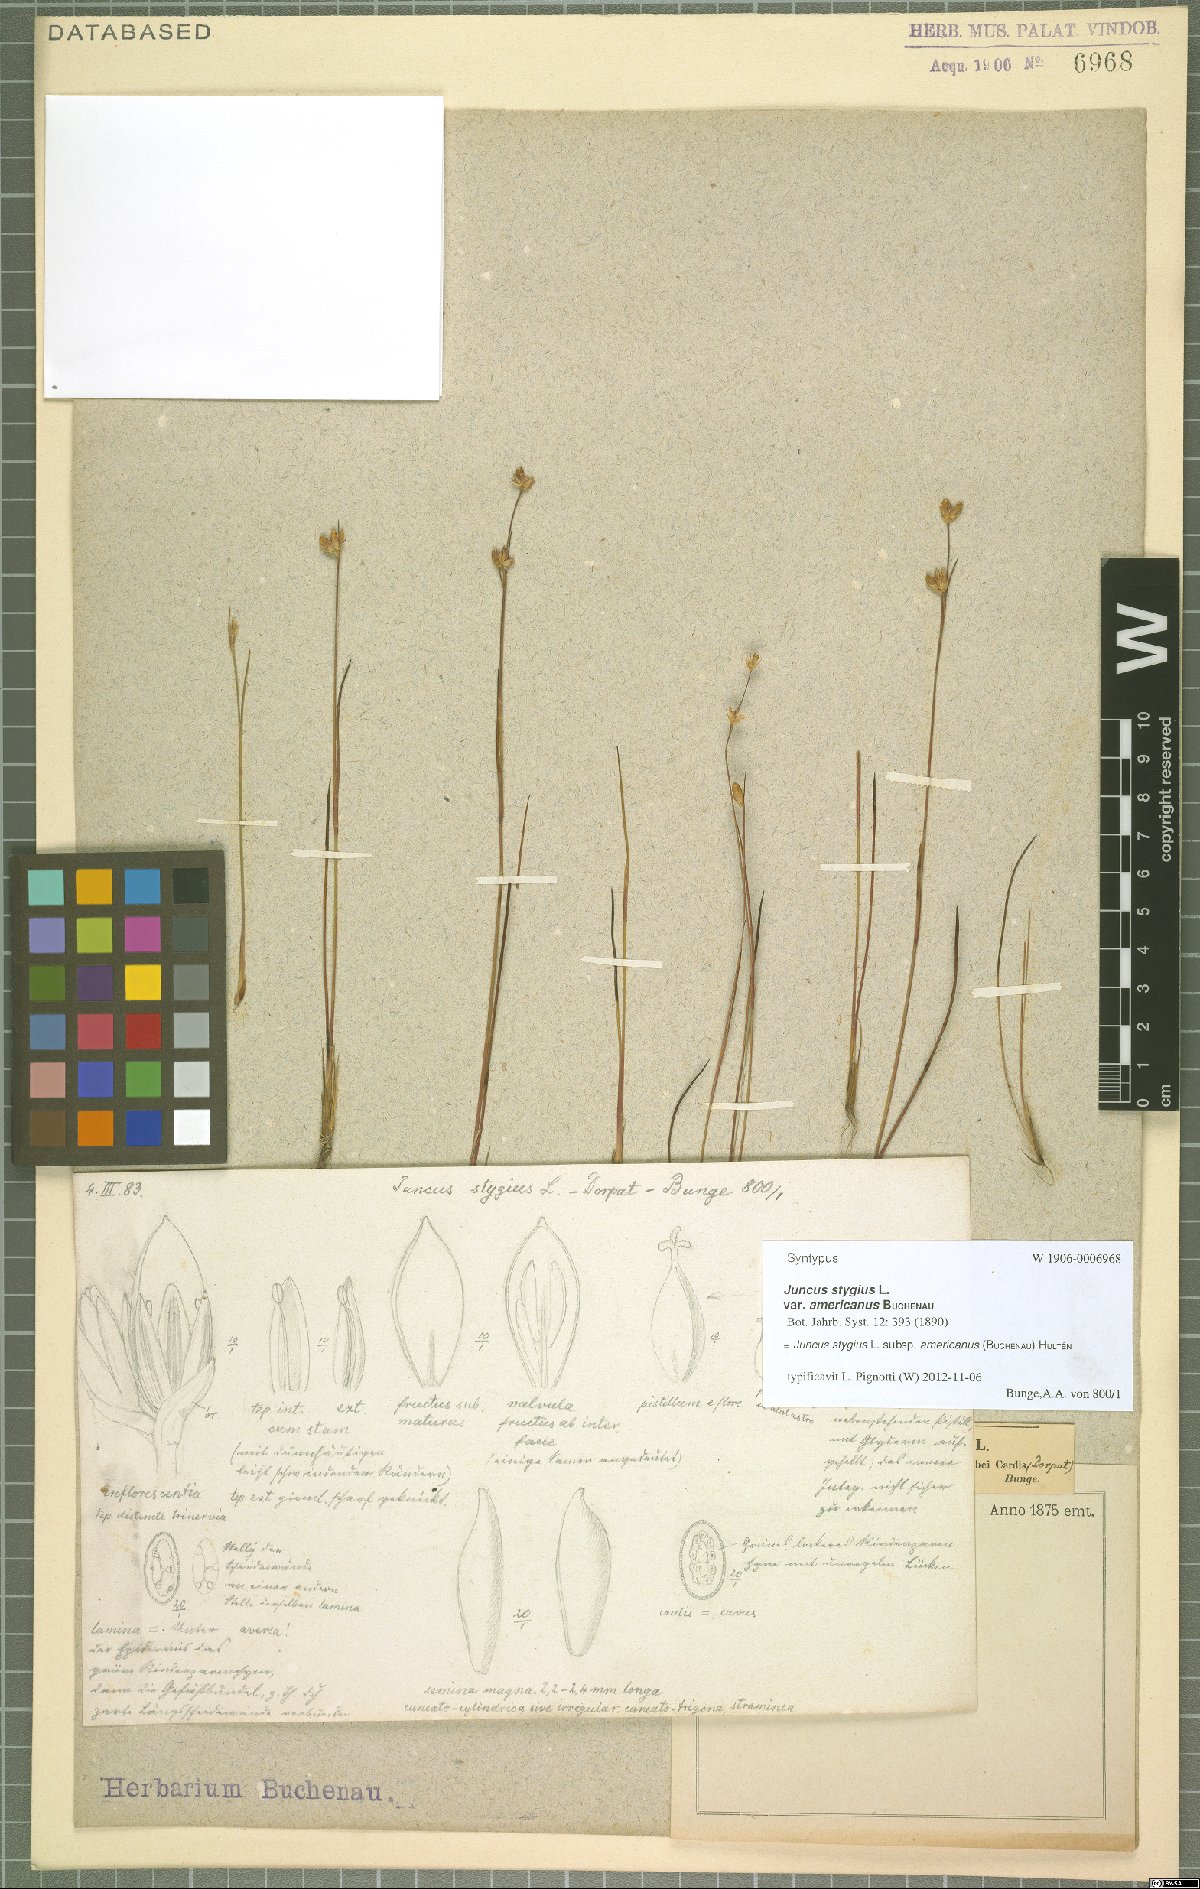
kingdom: Plantae
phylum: Tracheophyta
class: Liliopsida
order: Poales
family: Juncaceae
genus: Juncus
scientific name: Juncus stygius
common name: Bog rush
